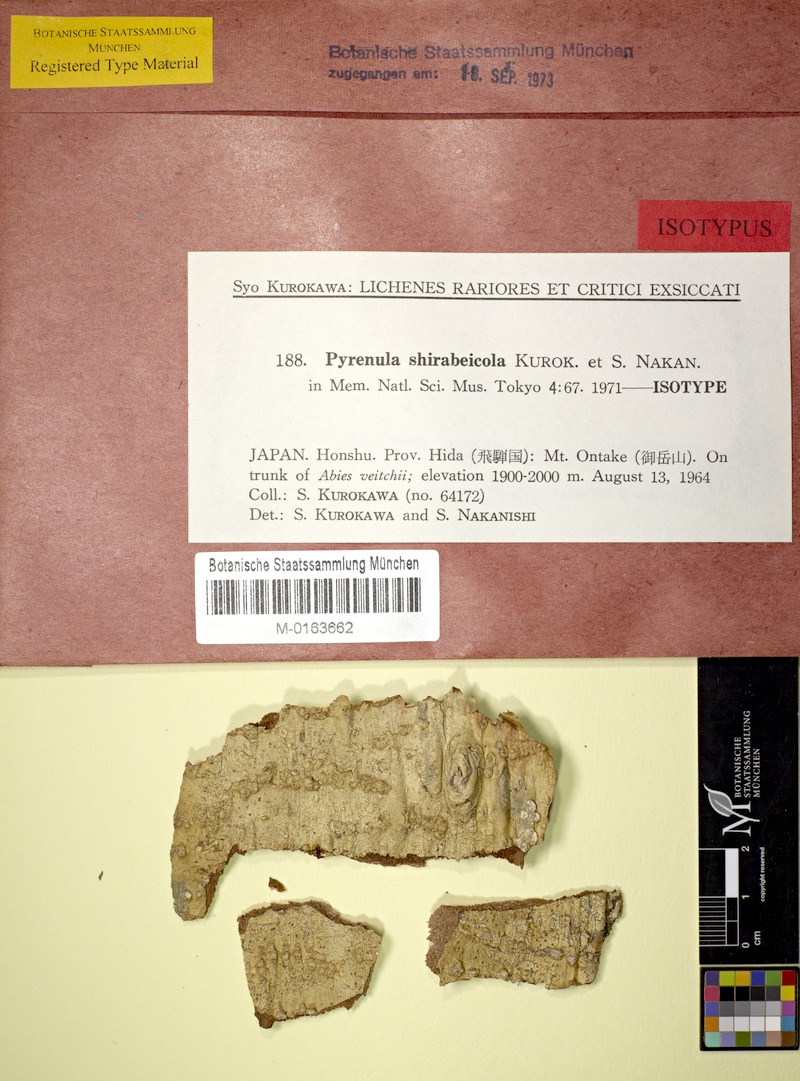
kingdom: Fungi
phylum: Ascomycota
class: Eurotiomycetes
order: Pyrenulales
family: Pyrenulaceae
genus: Pyrenula
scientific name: Pyrenula shirabeicola
